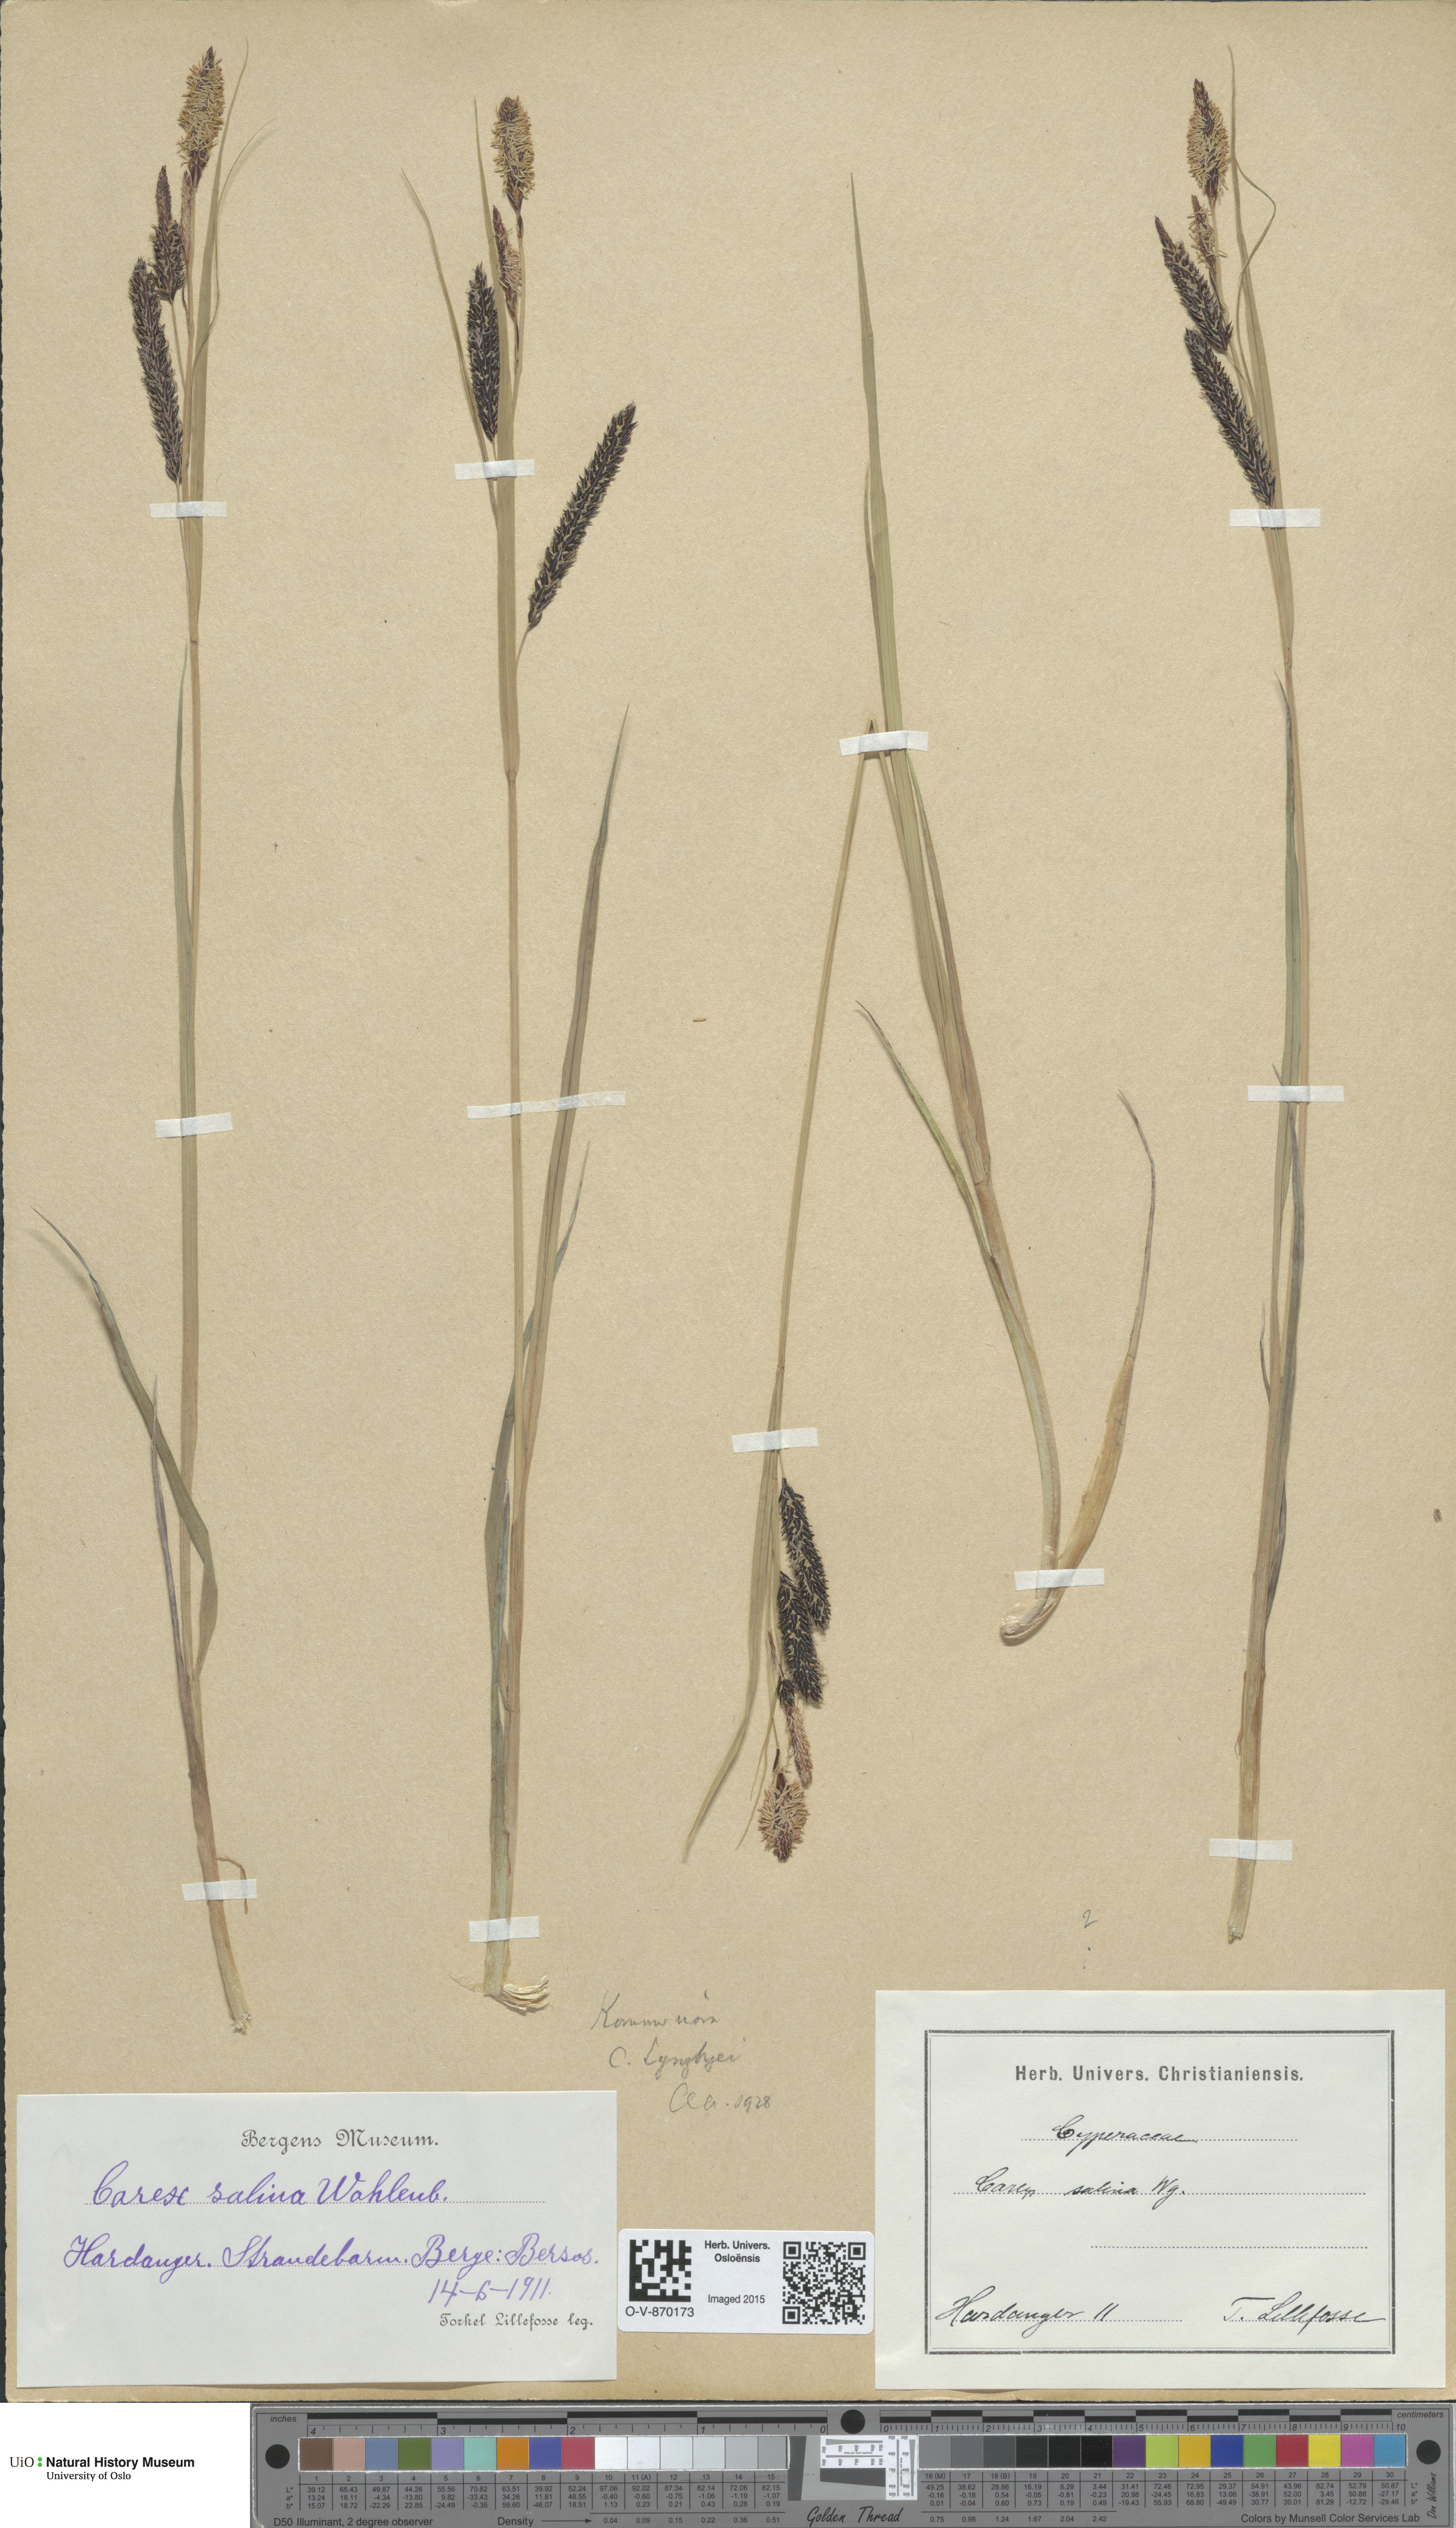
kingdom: Plantae
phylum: Tracheophyta
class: Liliopsida
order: Poales
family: Cyperaceae
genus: Carex
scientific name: Carex lyngbyei
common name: Lyngbye's sedge
